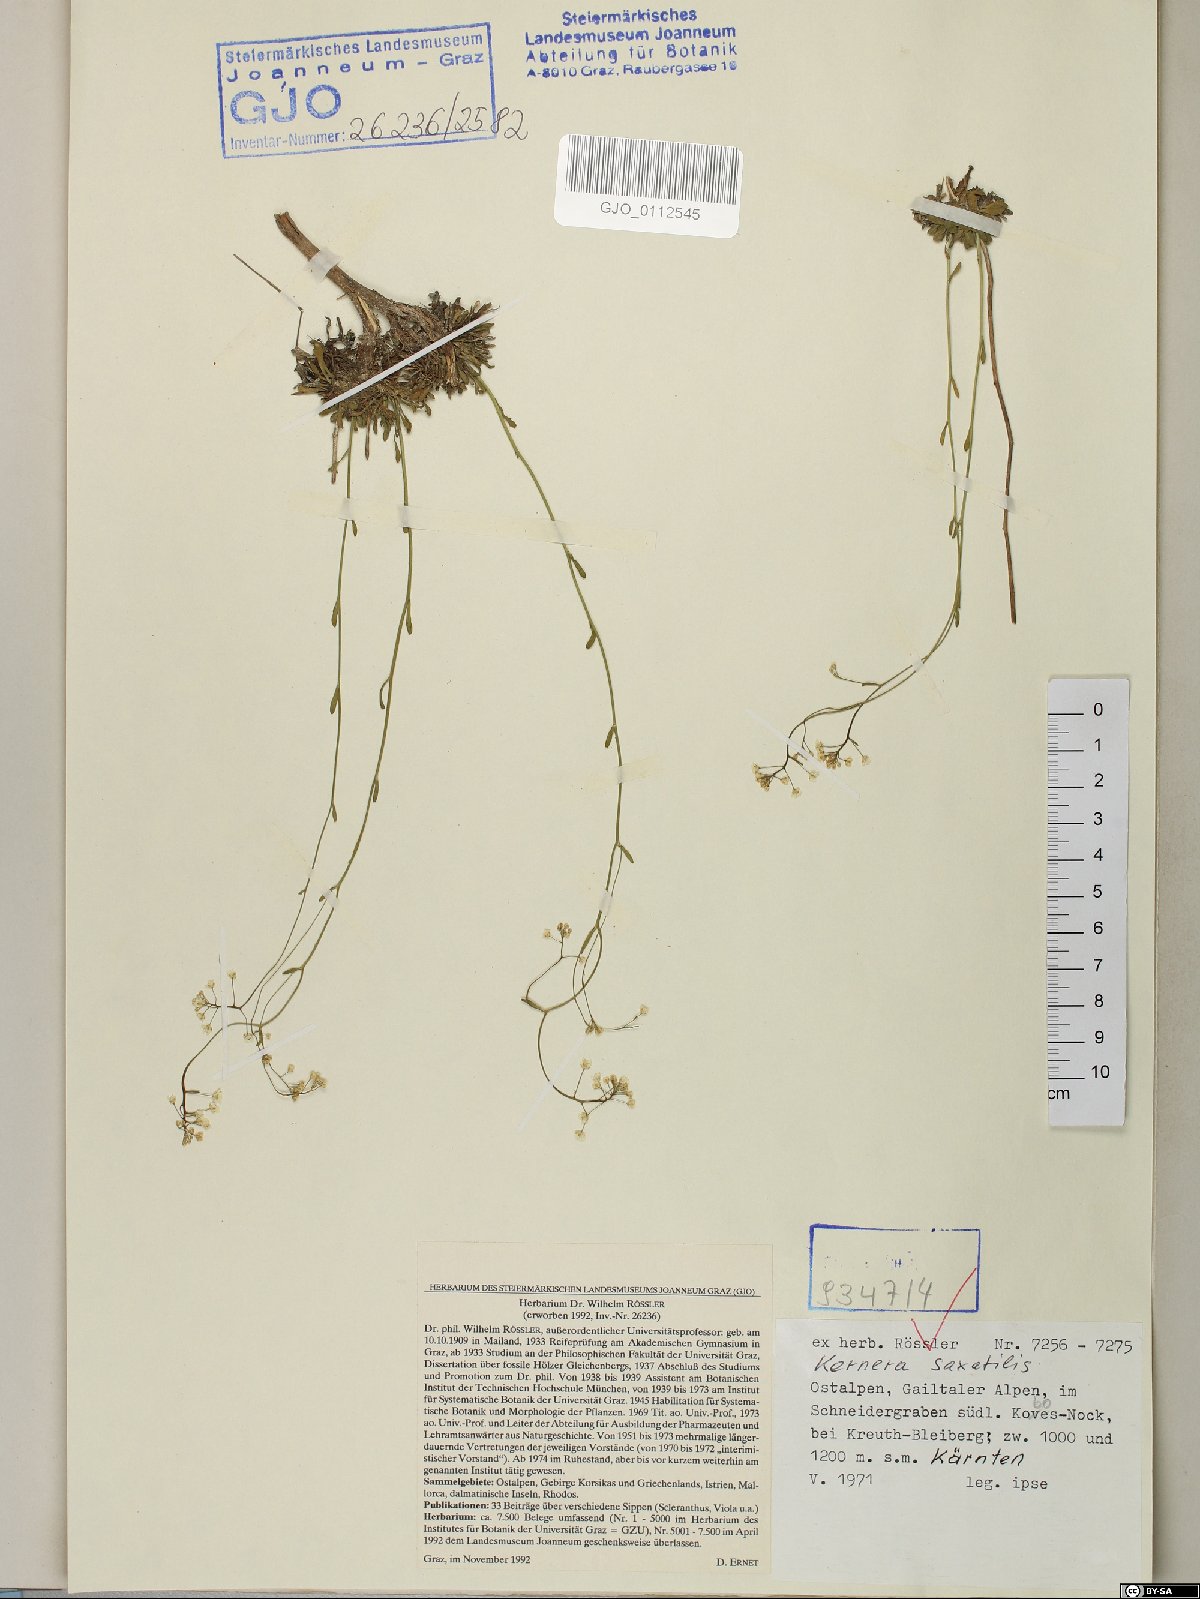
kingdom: Plantae
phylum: Tracheophyta
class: Magnoliopsida
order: Brassicales
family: Brassicaceae
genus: Kernera
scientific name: Kernera saxatilis
